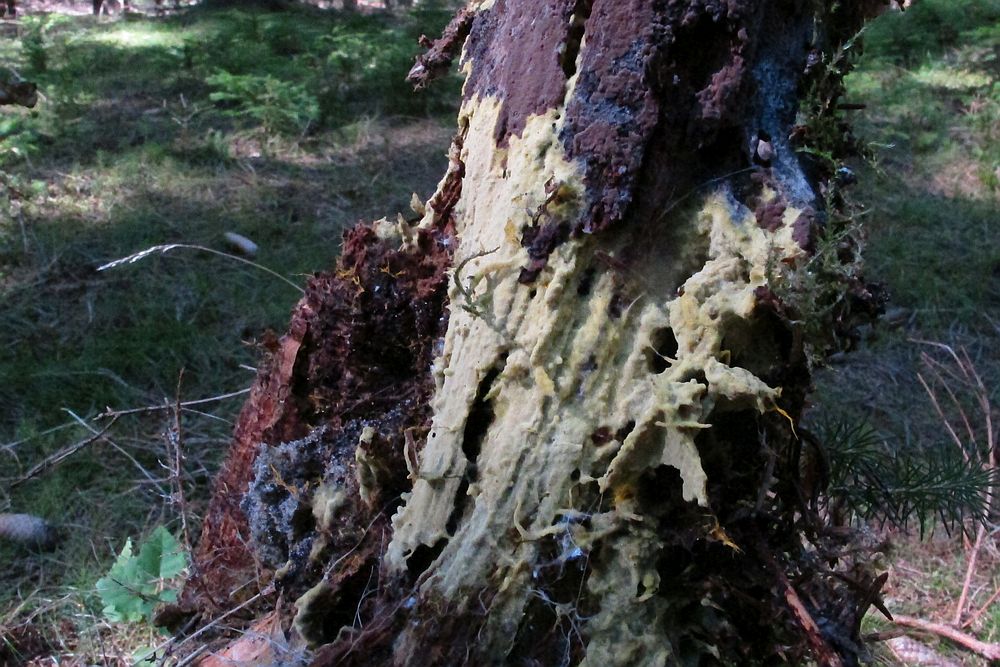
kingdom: Fungi
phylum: Basidiomycota
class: Agaricomycetes
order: Atheliales
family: Atheliaceae
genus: Piloderma
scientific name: Piloderma bicolor
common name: gul førnehinde
